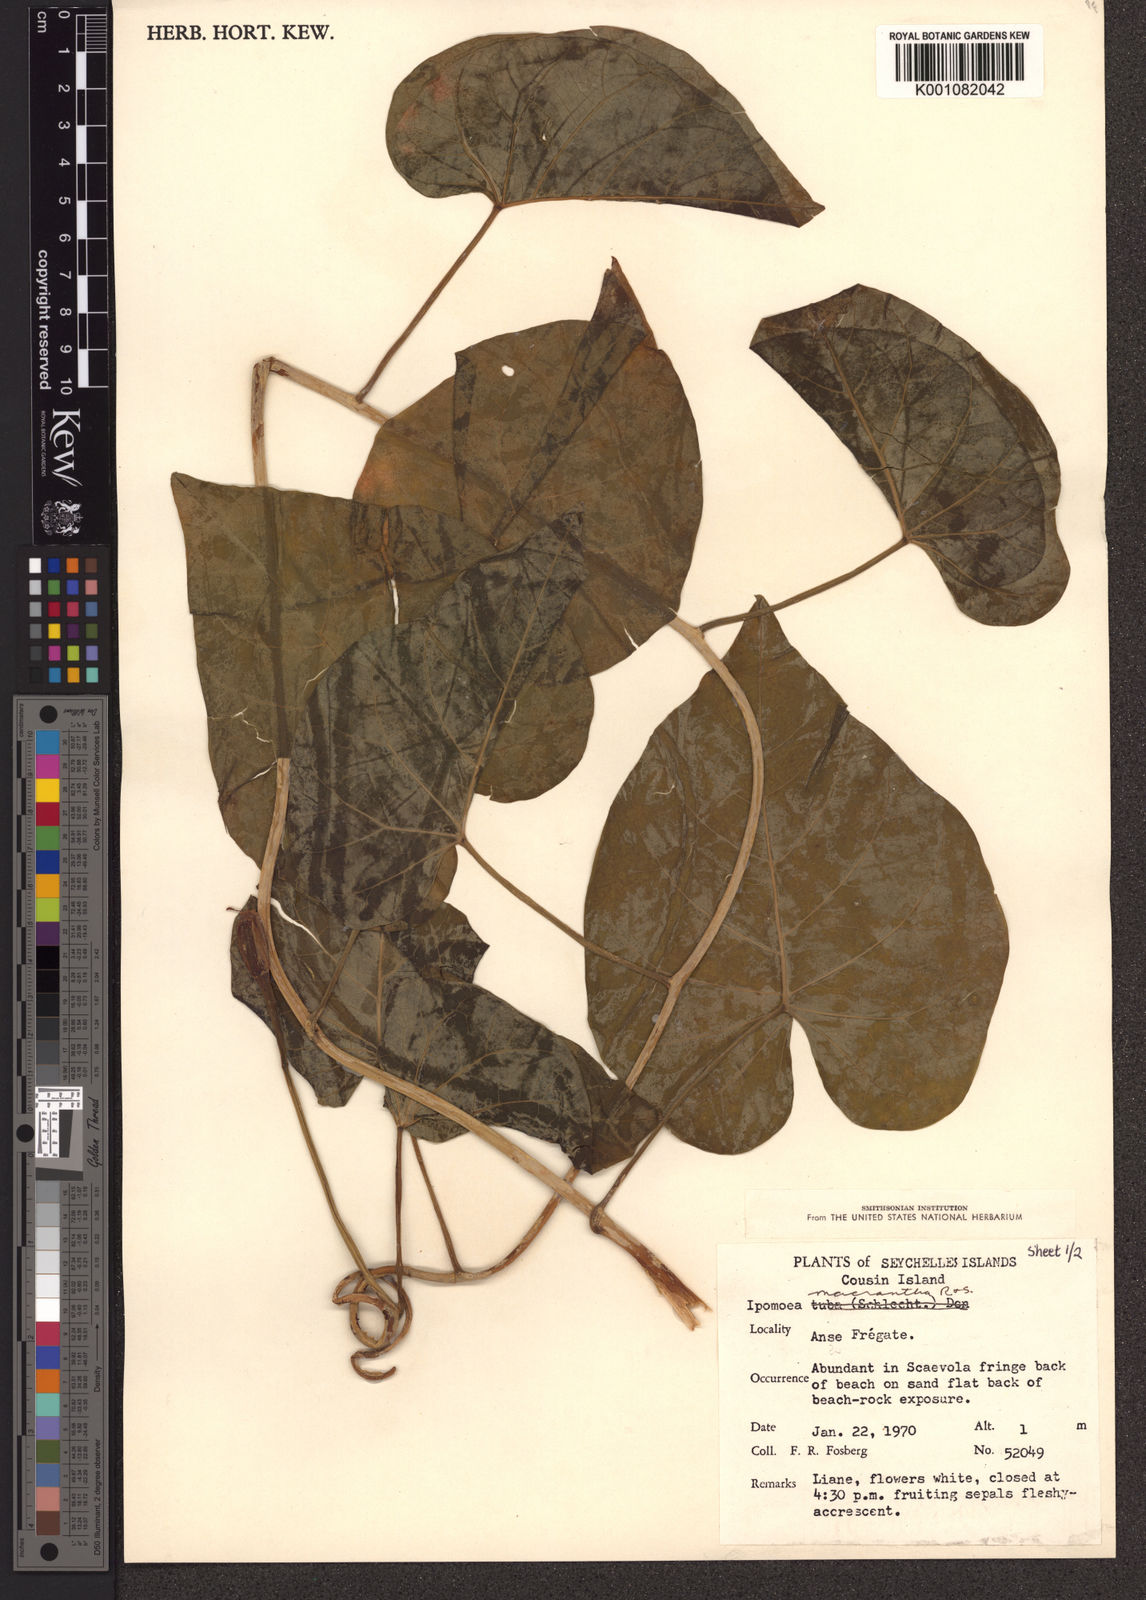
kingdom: Plantae
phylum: Tracheophyta
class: Magnoliopsida
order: Solanales
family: Convolvulaceae
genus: Ipomoea
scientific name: Ipomoea violacea
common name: Beach moonflower
